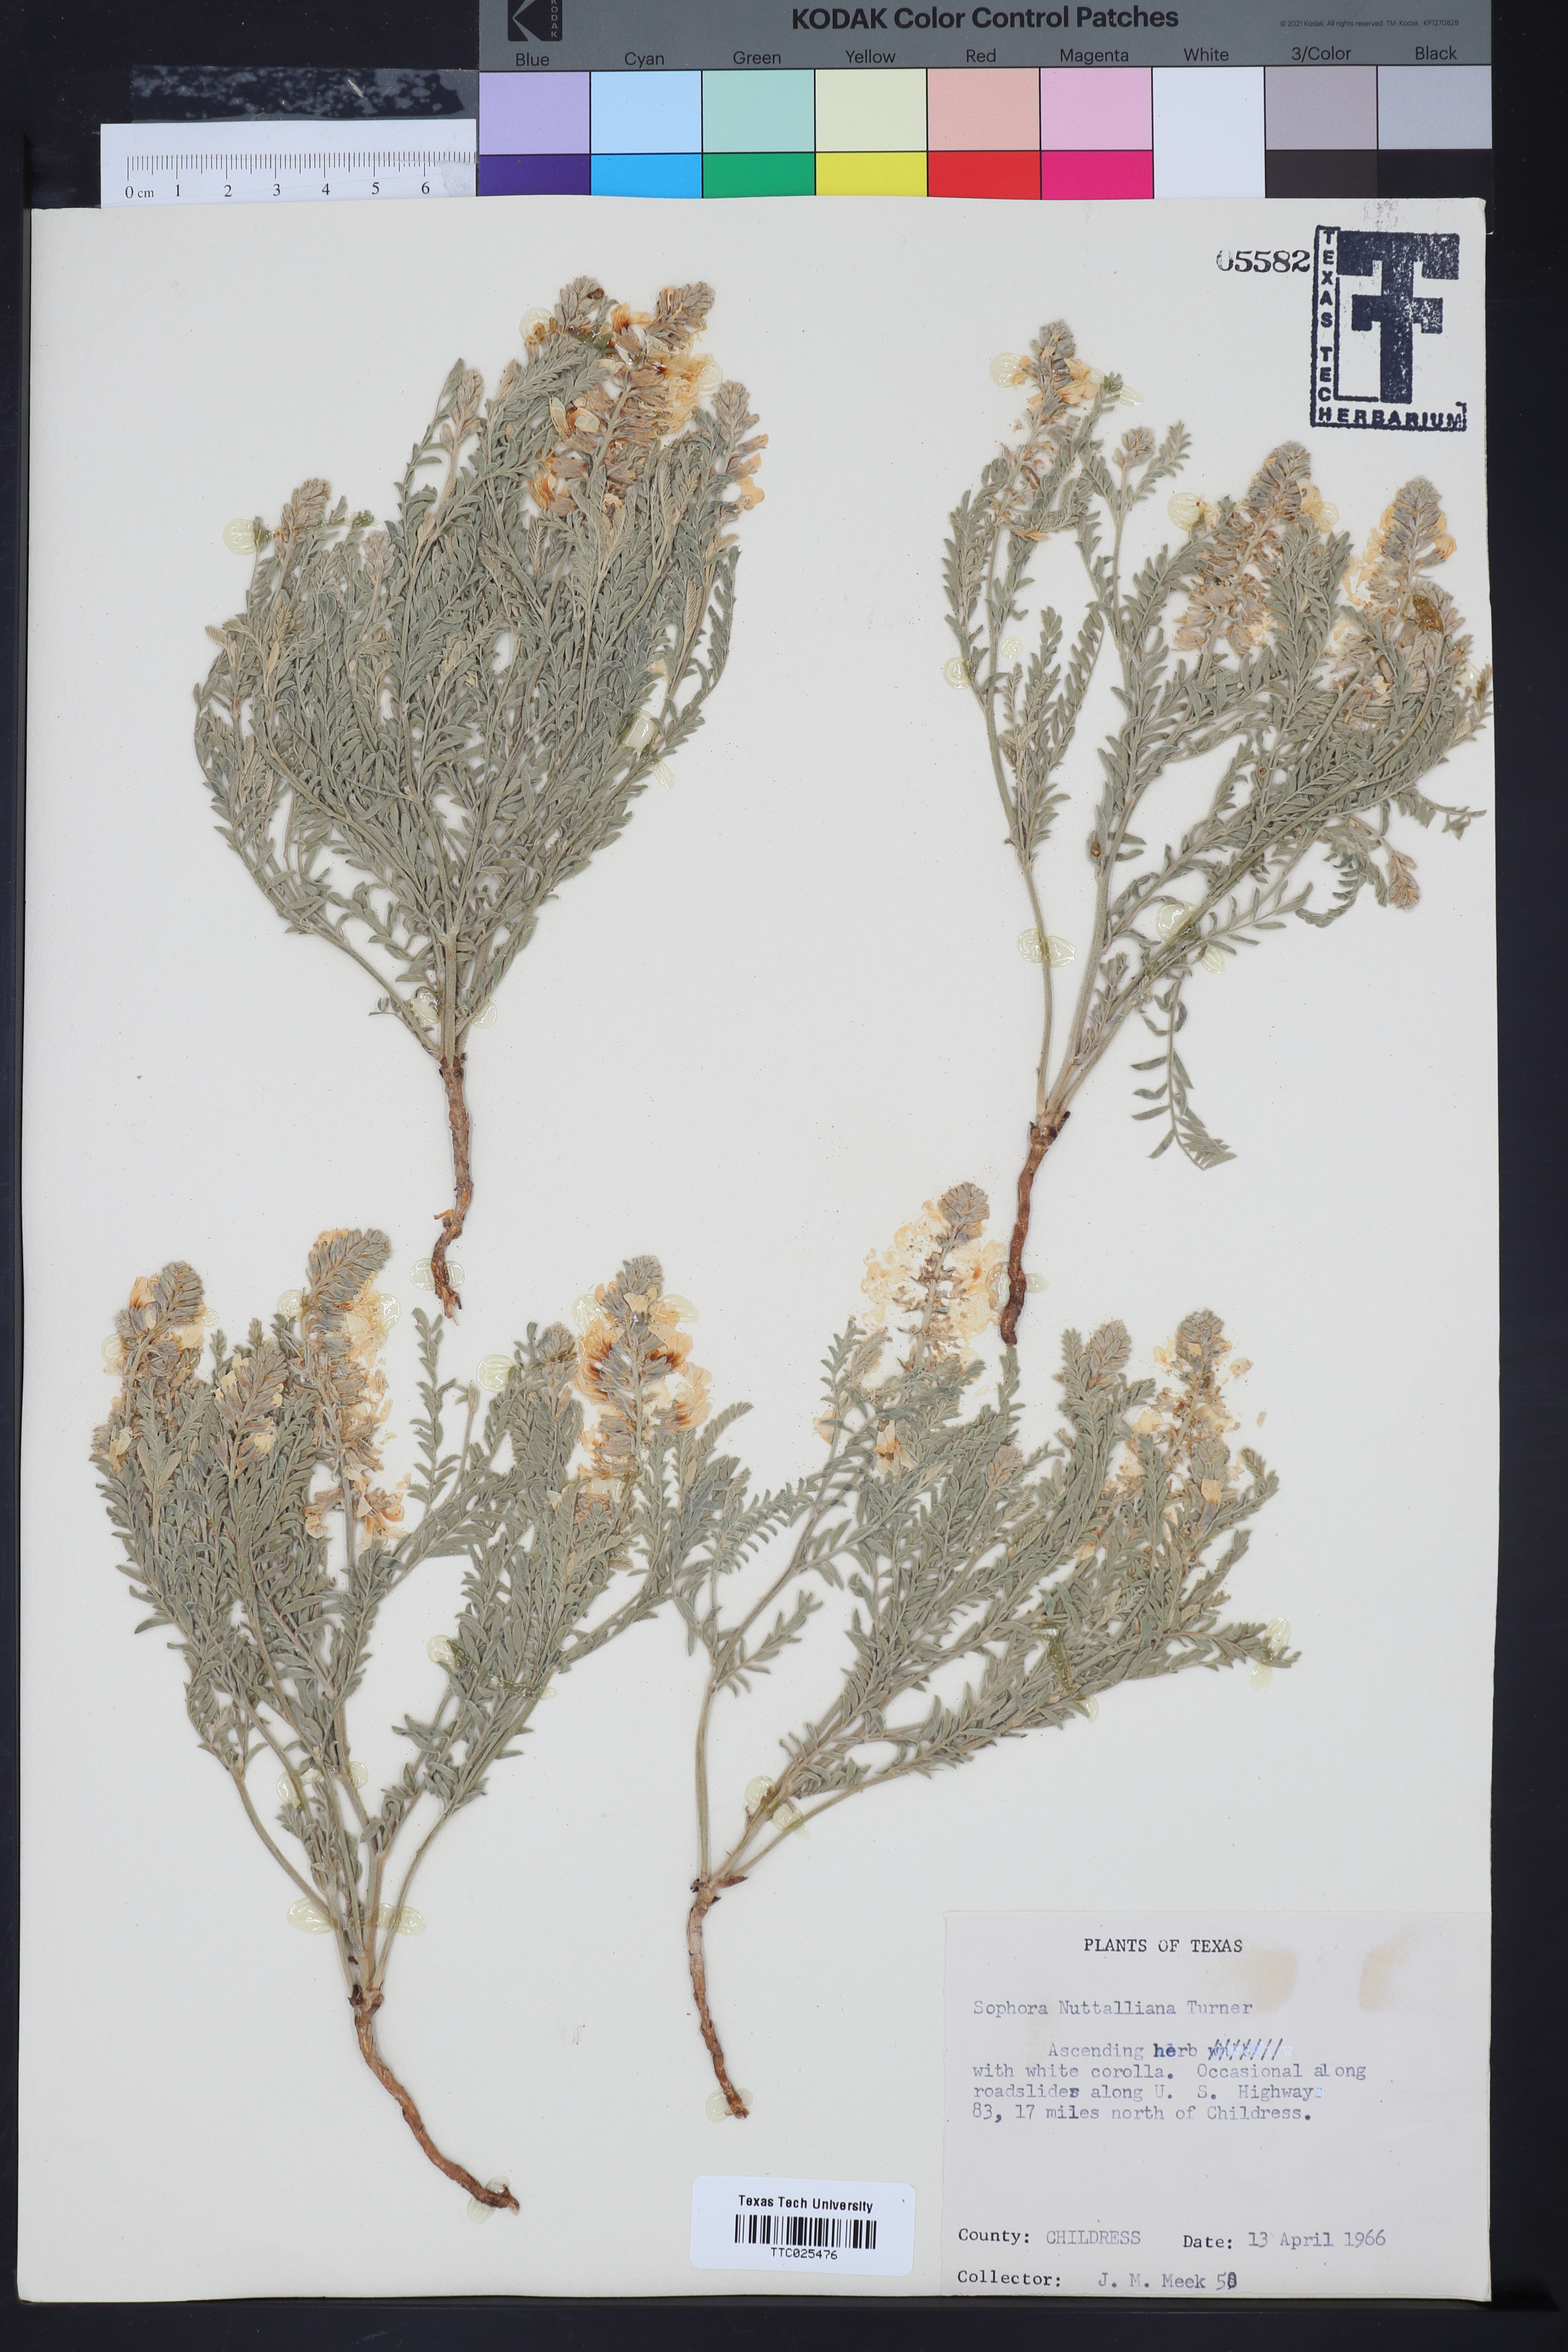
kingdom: Plantae
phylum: Tracheophyta
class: Magnoliopsida
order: Fabales
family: Fabaceae
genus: Sophora
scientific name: Sophora nuttalliana
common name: Silky sophora
